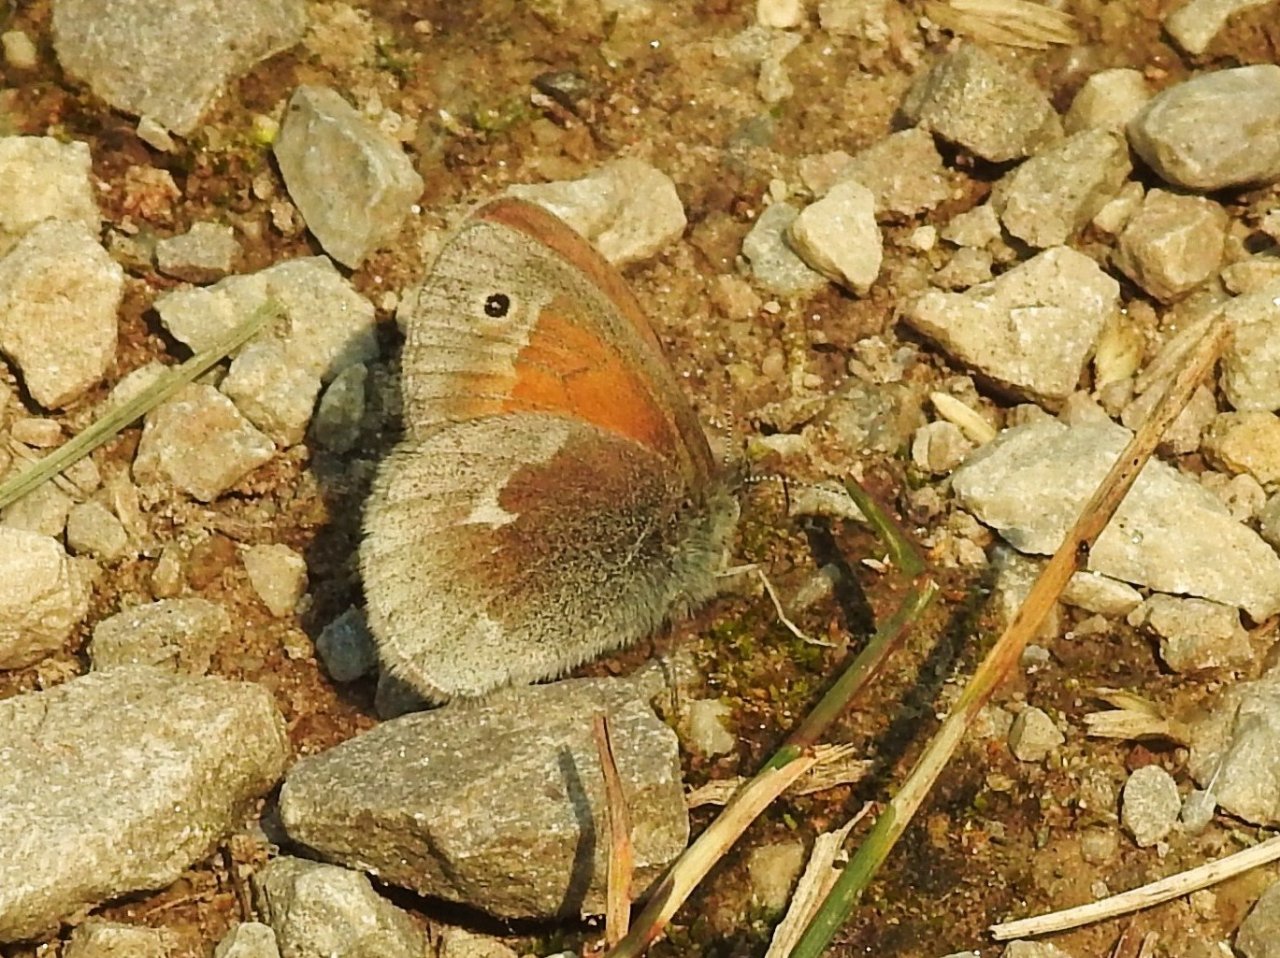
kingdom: Animalia
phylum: Arthropoda
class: Insecta
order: Lepidoptera
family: Nymphalidae
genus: Coenonympha
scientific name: Coenonympha tullia
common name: Large Heath
